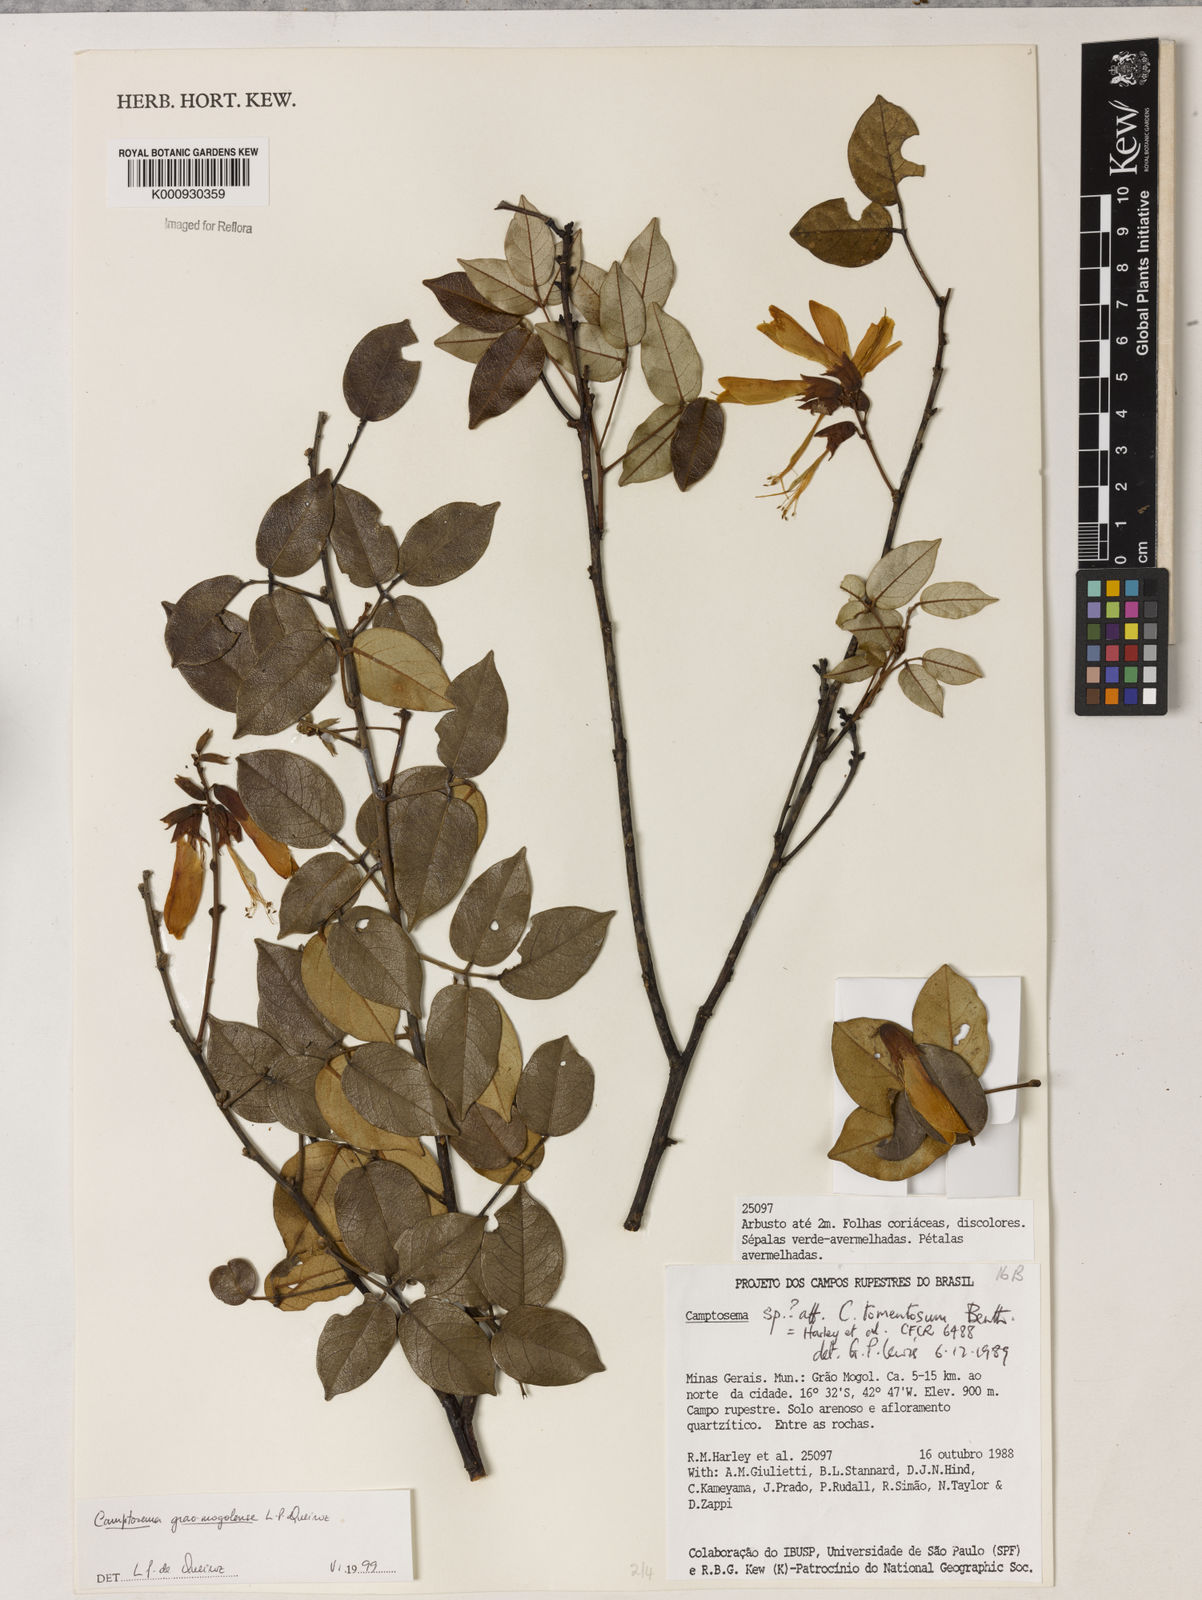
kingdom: Plantae
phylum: Tracheophyta
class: Magnoliopsida
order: Fabales
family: Fabaceae
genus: Camptosema
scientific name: Camptosema
